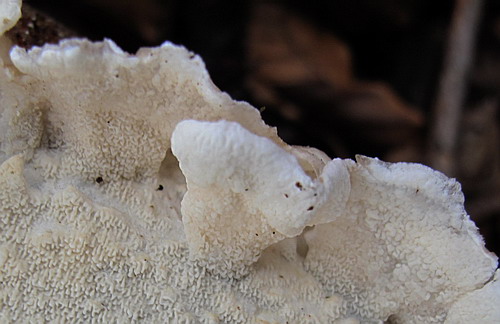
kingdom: Fungi
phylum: Basidiomycota
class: Agaricomycetes
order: Polyporales
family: Irpicaceae
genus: Byssomerulius
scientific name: Byssomerulius corium
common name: læder-åresvamp
